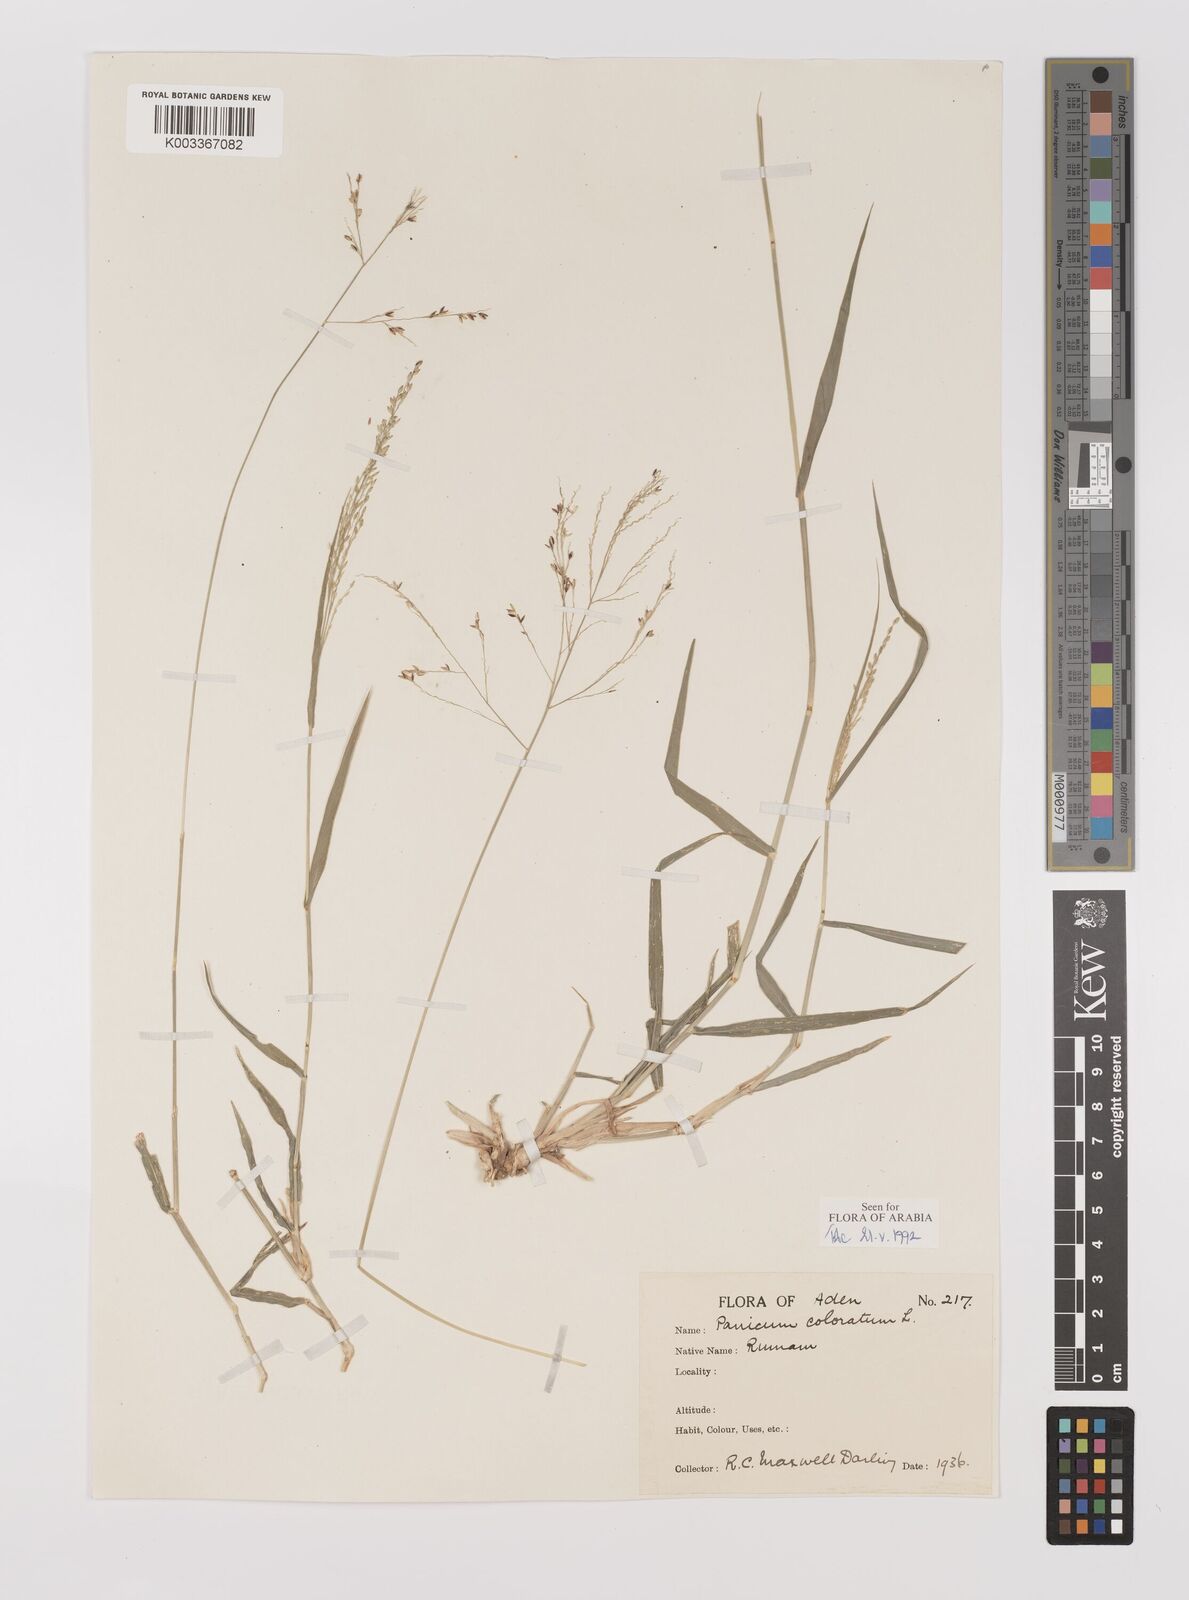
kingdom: Plantae
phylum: Tracheophyta
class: Liliopsida
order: Poales
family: Poaceae
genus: Panicum
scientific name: Panicum coloratum
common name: Kleingrass
